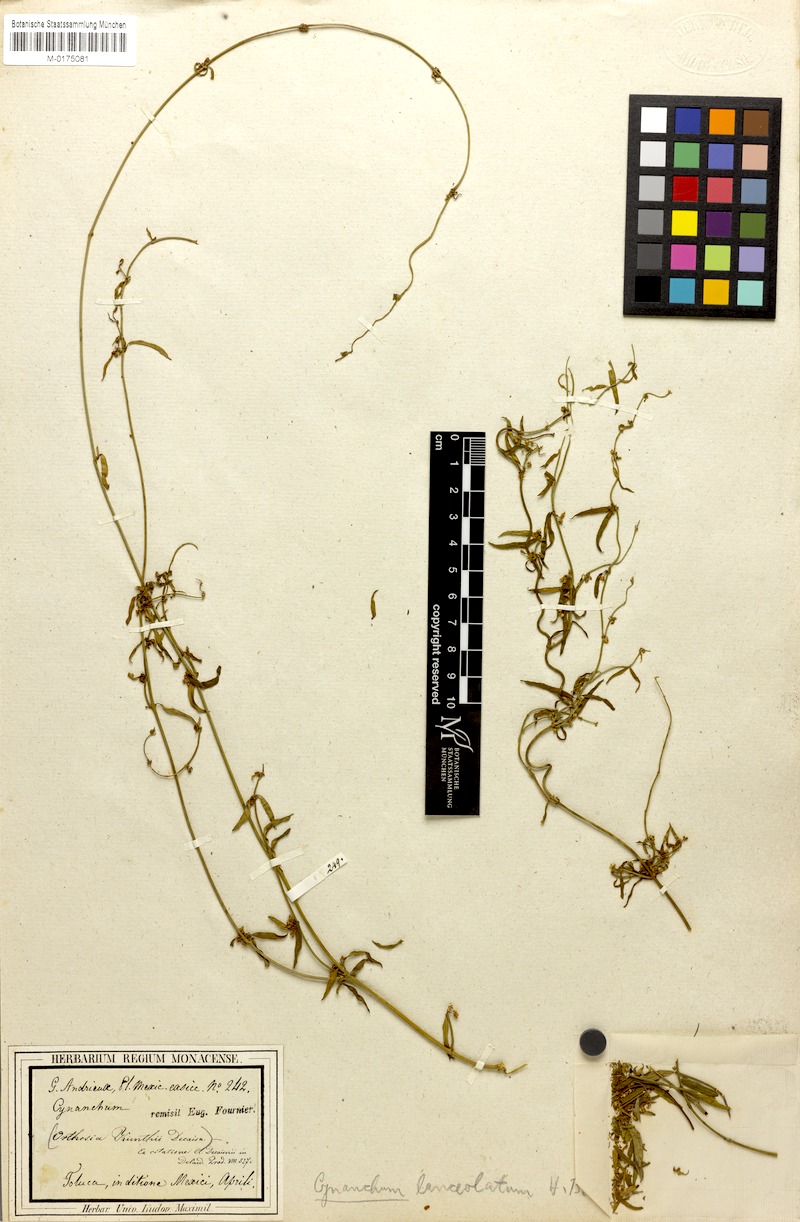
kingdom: Plantae
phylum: Tracheophyta
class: Magnoliopsida
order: Gentianales
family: Apocynaceae
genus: Orthosia
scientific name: Orthosia bonplandiana
